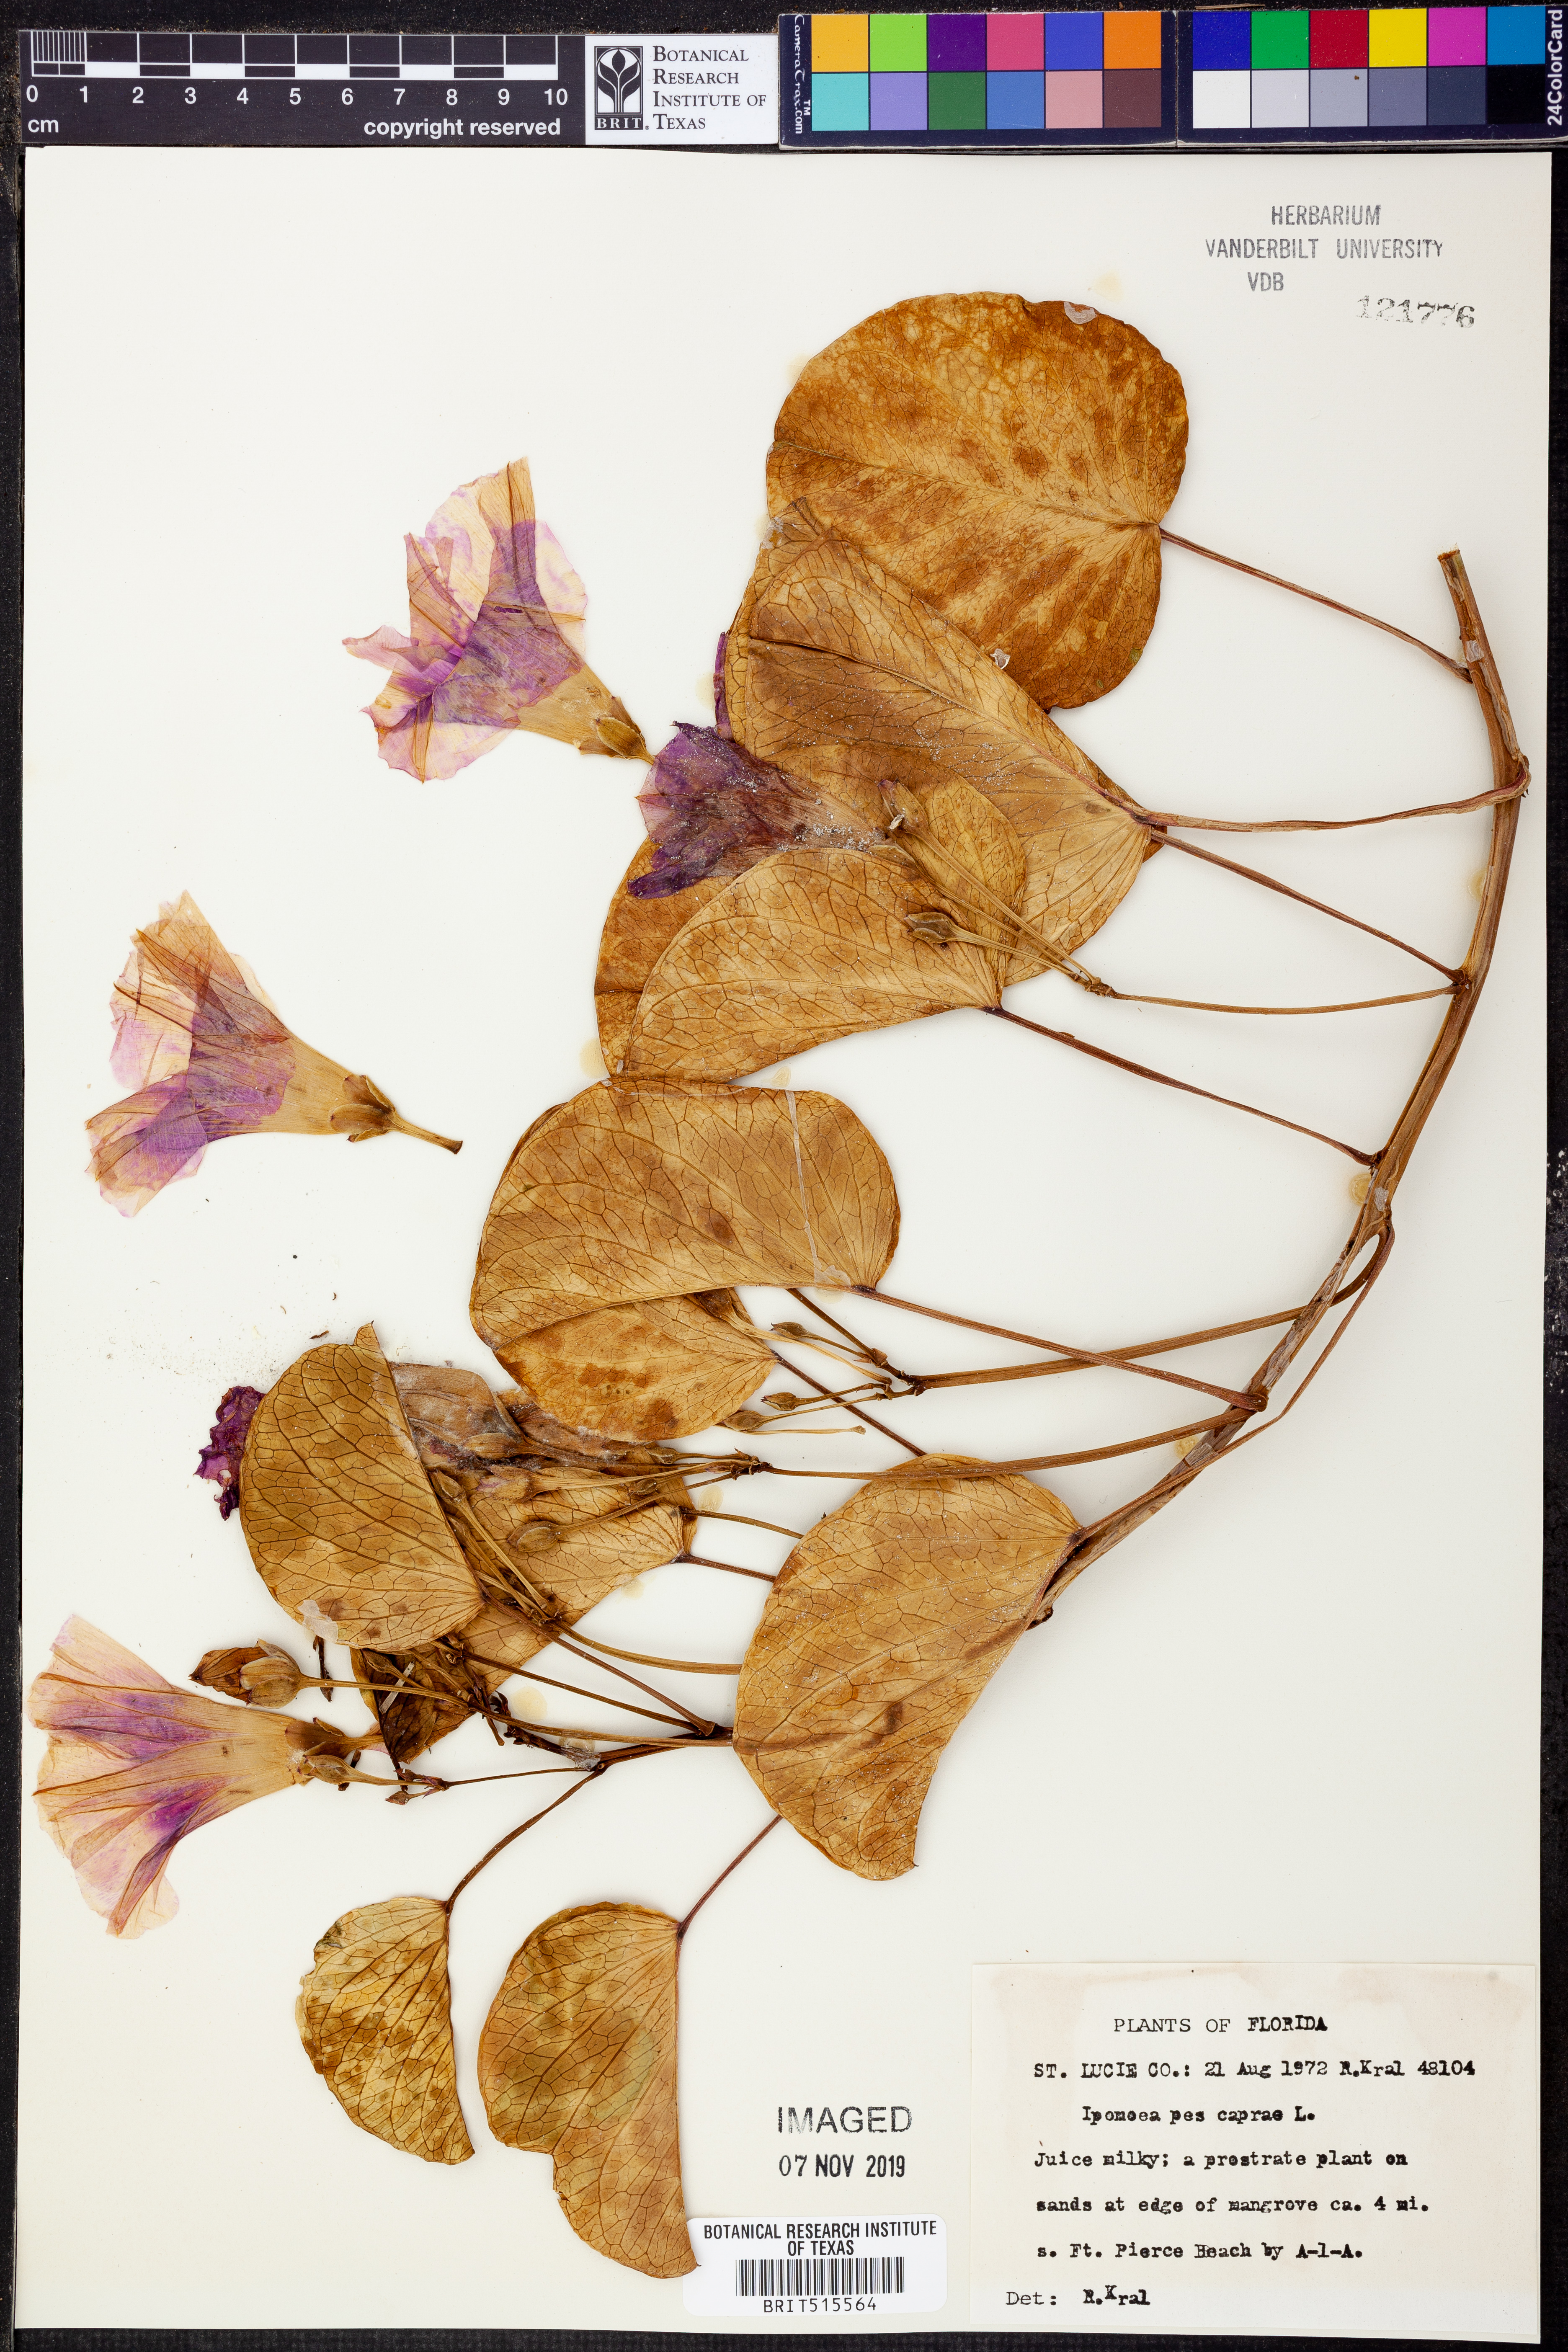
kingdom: Plantae
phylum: Tracheophyta
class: Magnoliopsida
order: Solanales
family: Convolvulaceae
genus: Ipomoea
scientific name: Ipomoea pes-caprae
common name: Beach morning glory
